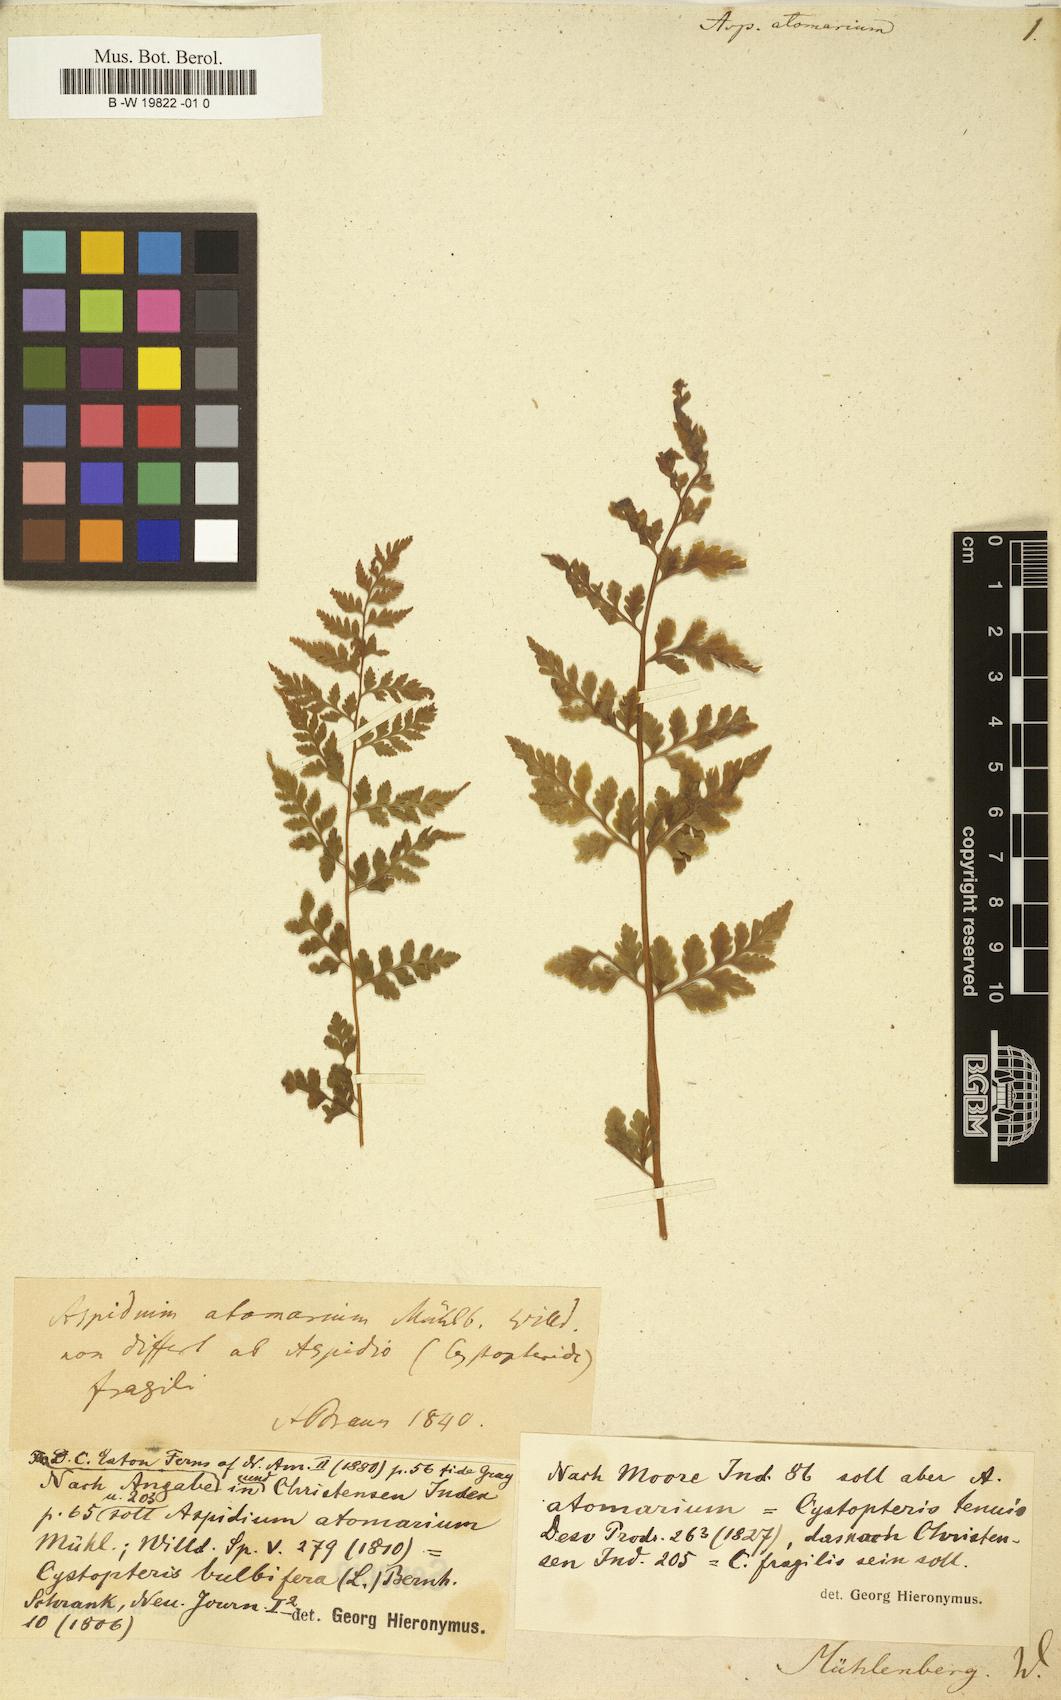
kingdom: Plantae
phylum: Tracheophyta
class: Polypodiopsida
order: Polypodiales
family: Cystopteridaceae
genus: Cystopteris
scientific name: Cystopteris bulbifera
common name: Bulblet bladder fern
